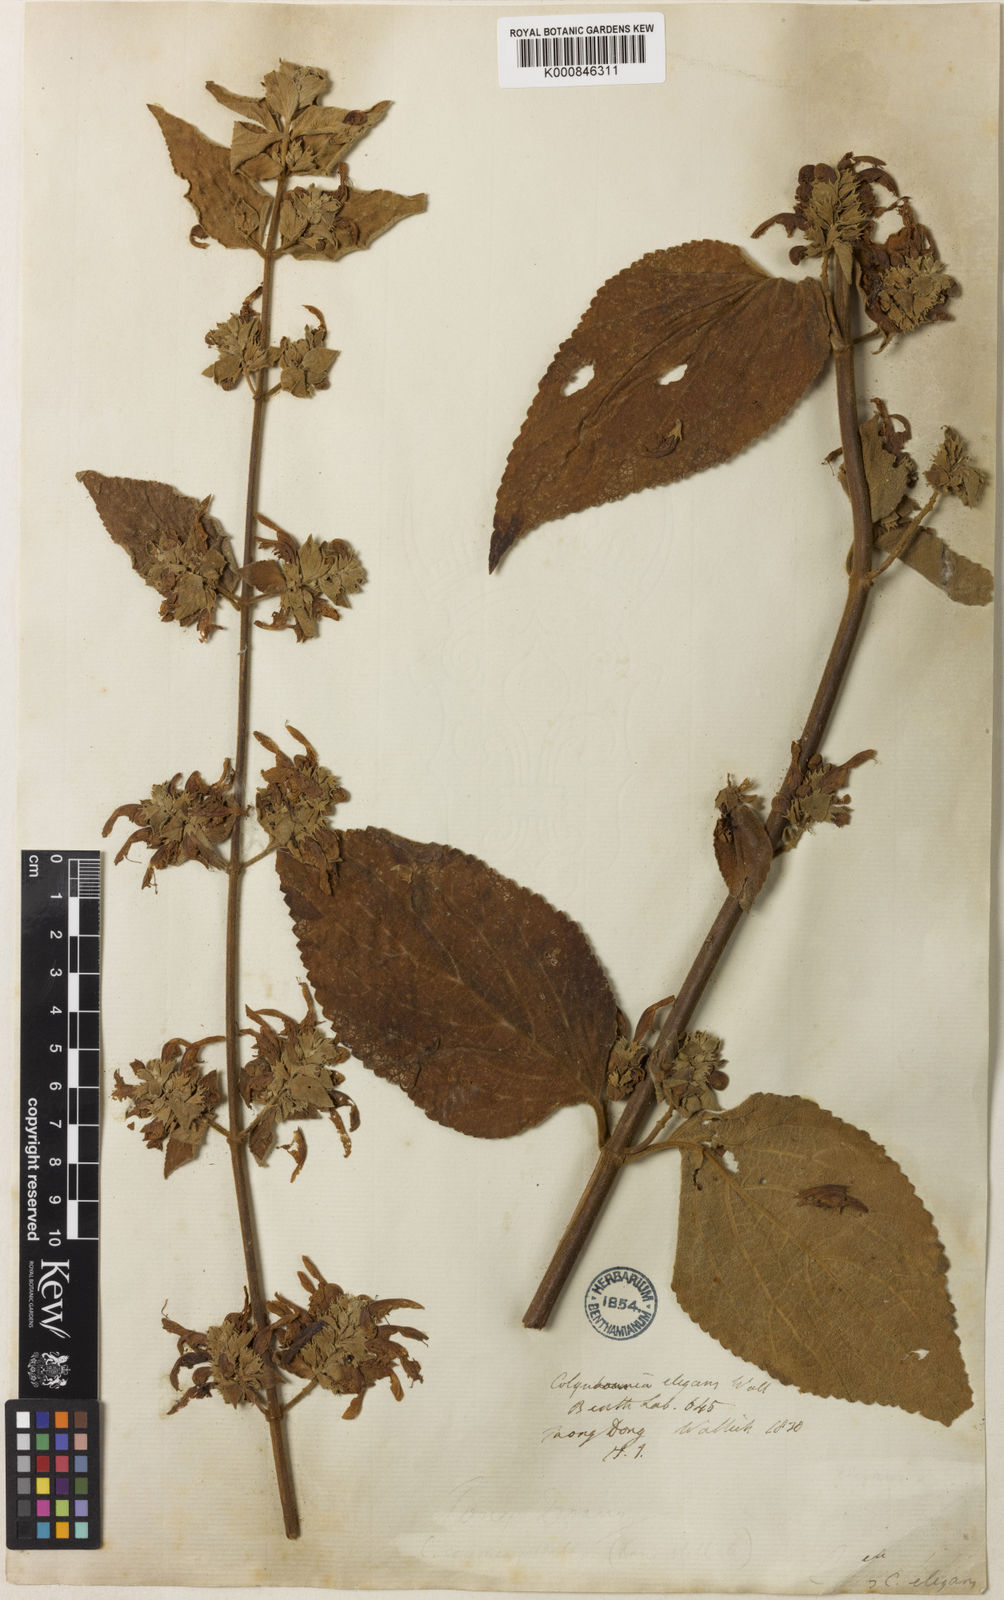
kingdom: Plantae
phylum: Tracheophyta
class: Magnoliopsida
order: Lamiales
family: Lamiaceae
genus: Colquhounia
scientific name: Colquhounia elegans
